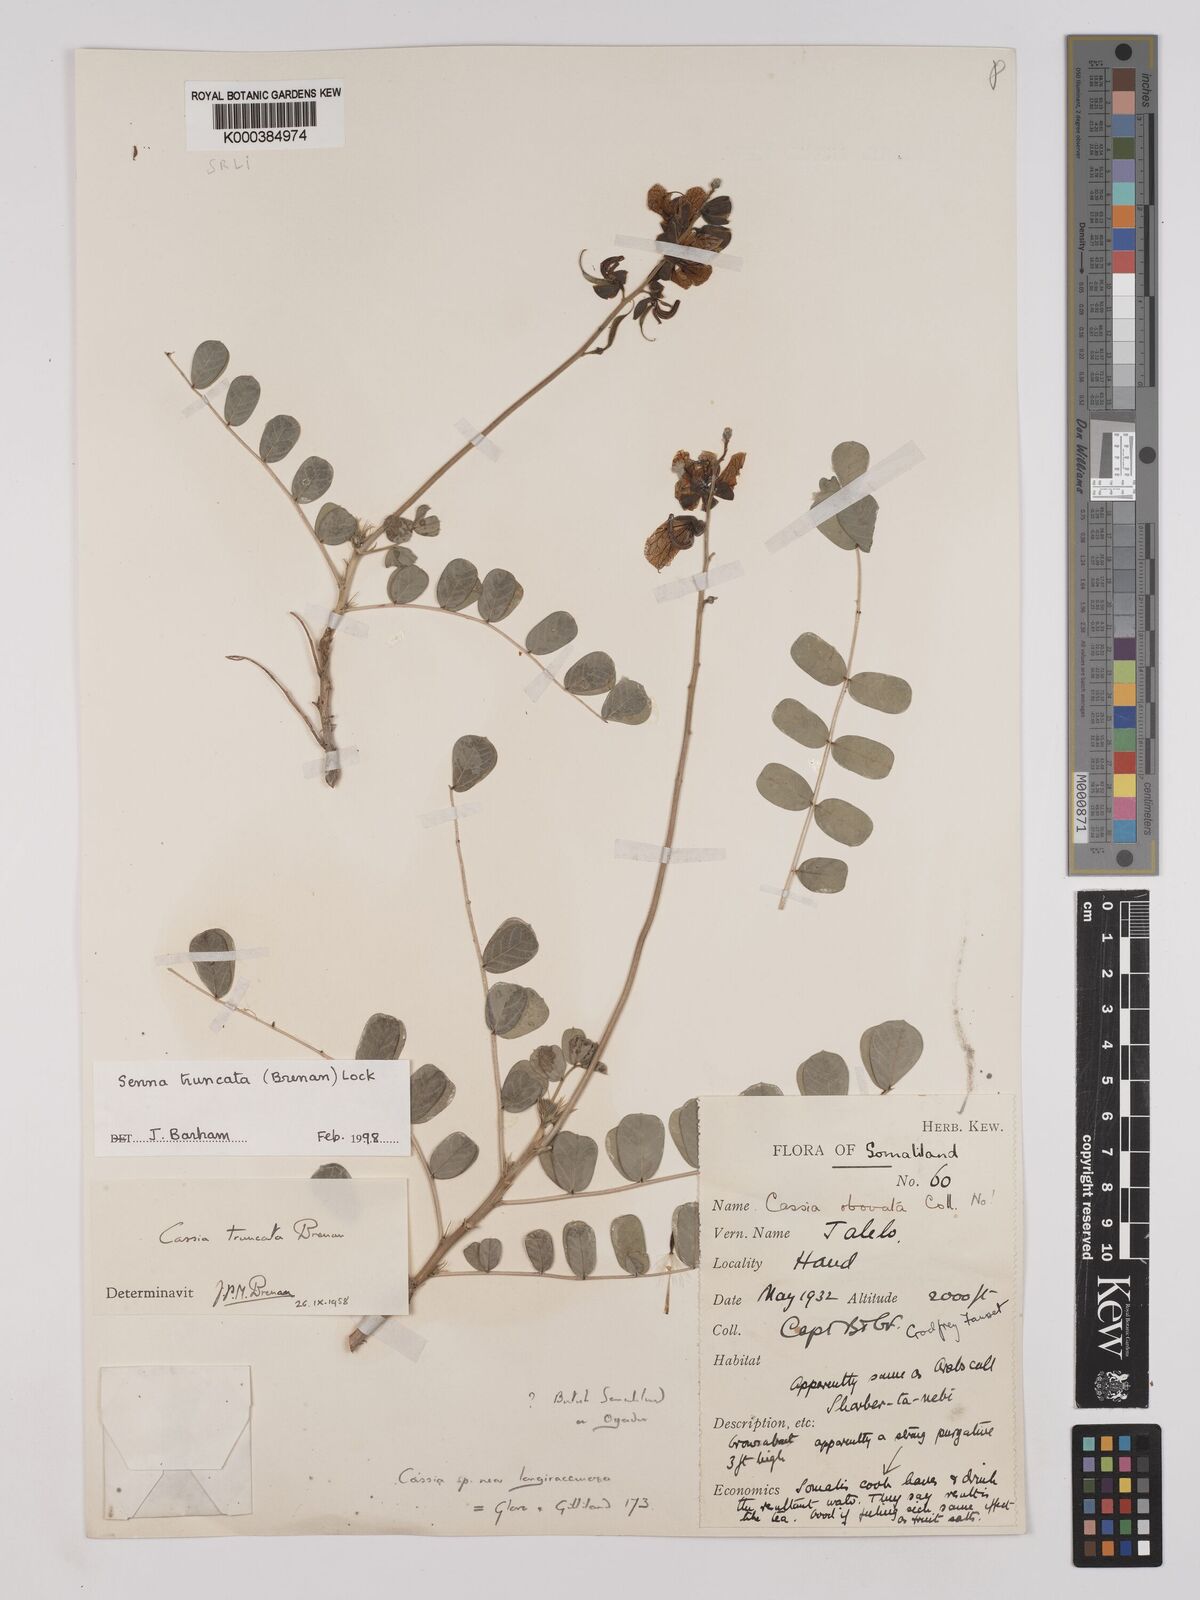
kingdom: Plantae
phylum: Tracheophyta
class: Magnoliopsida
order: Fabales
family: Fabaceae
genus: Senna
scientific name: Senna truncata
